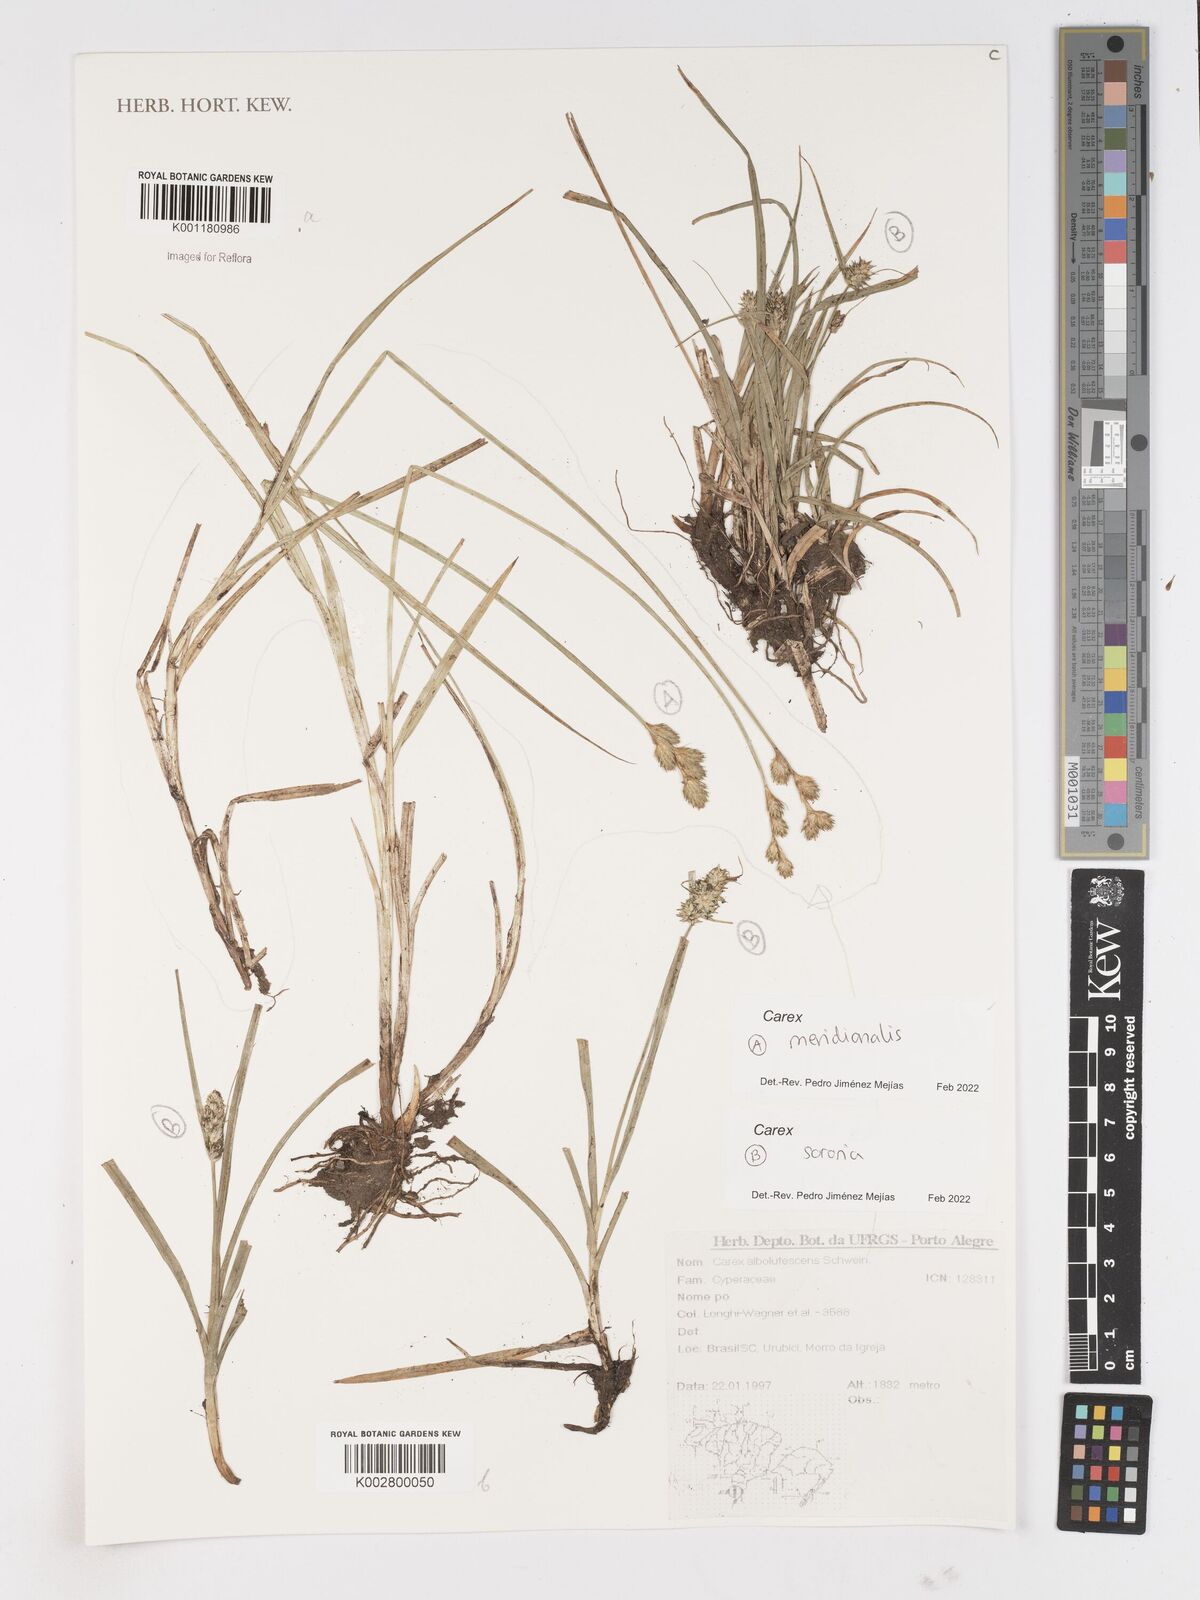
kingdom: Plantae
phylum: Tracheophyta
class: Liliopsida
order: Poales
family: Cyperaceae
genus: Carex
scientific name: Carex meridionalis
